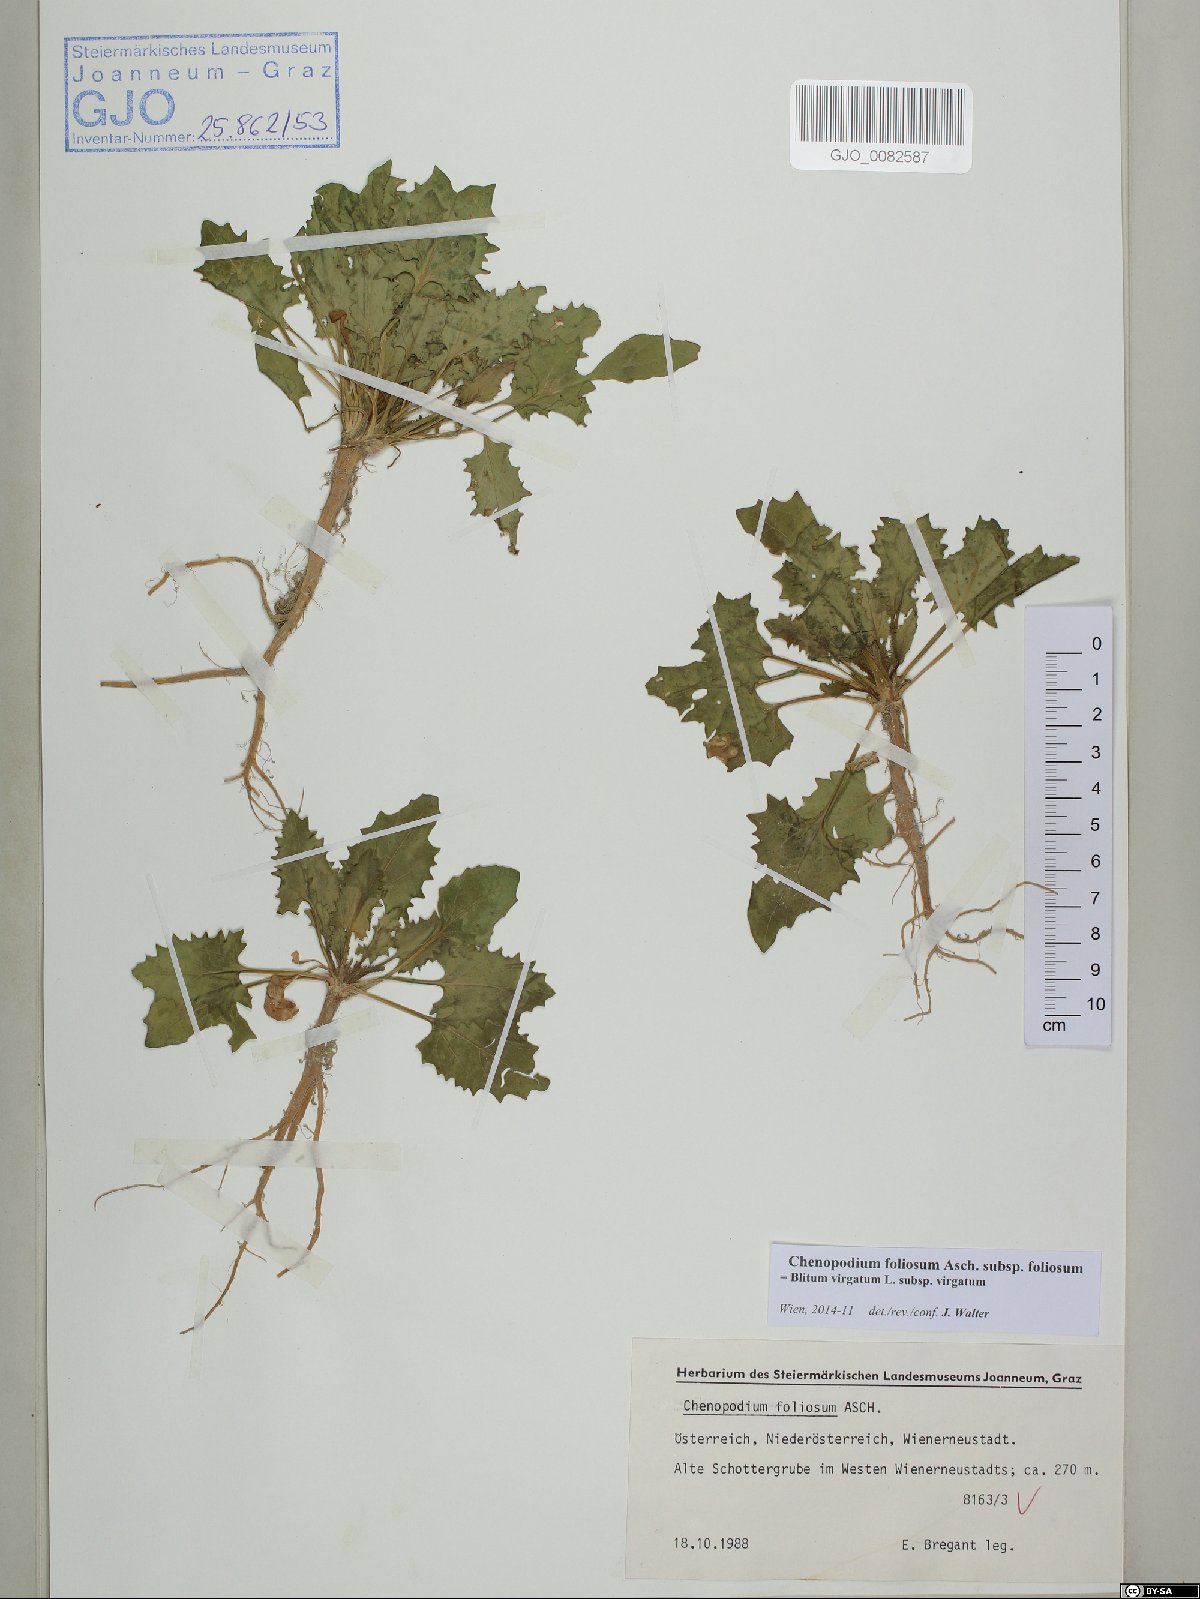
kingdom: Plantae
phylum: Tracheophyta
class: Magnoliopsida
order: Caryophyllales
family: Amaranthaceae
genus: Blitum
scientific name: Blitum virgatum
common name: Strawberry goosefoot
